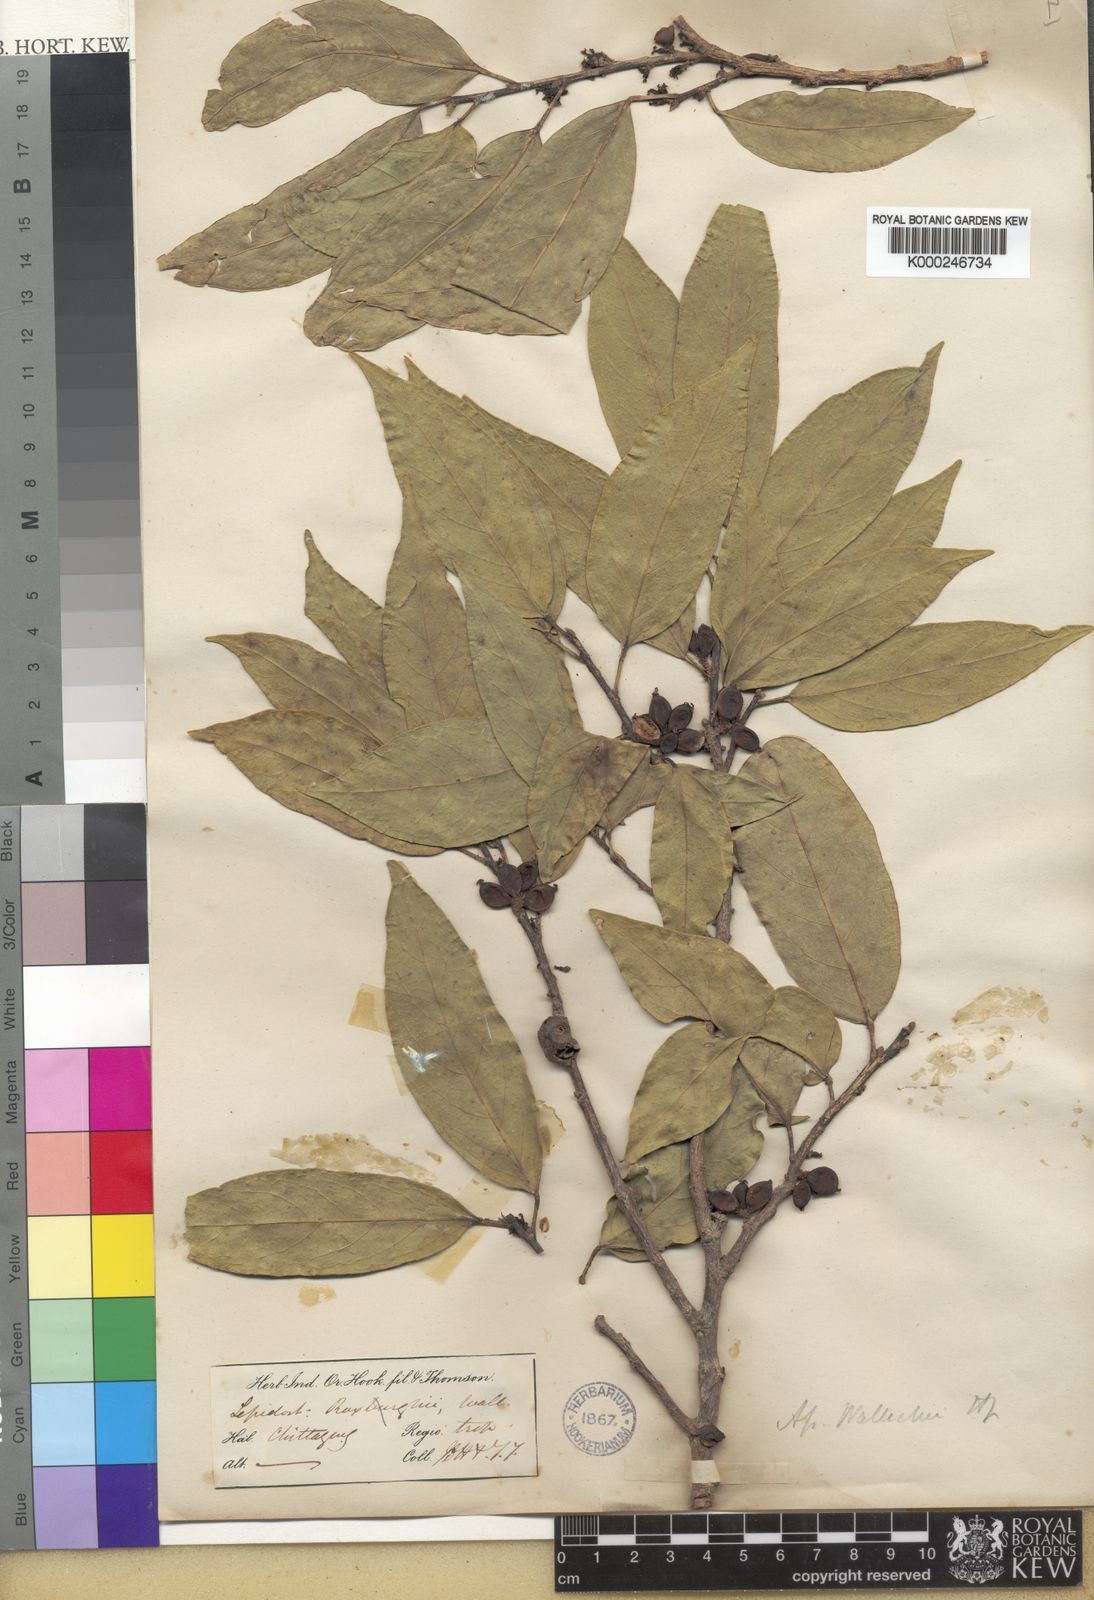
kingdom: Plantae
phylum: Tracheophyta
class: Magnoliopsida
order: Malpighiales
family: Phyllanthaceae
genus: Aporosa
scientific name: Aporosa wallichii
